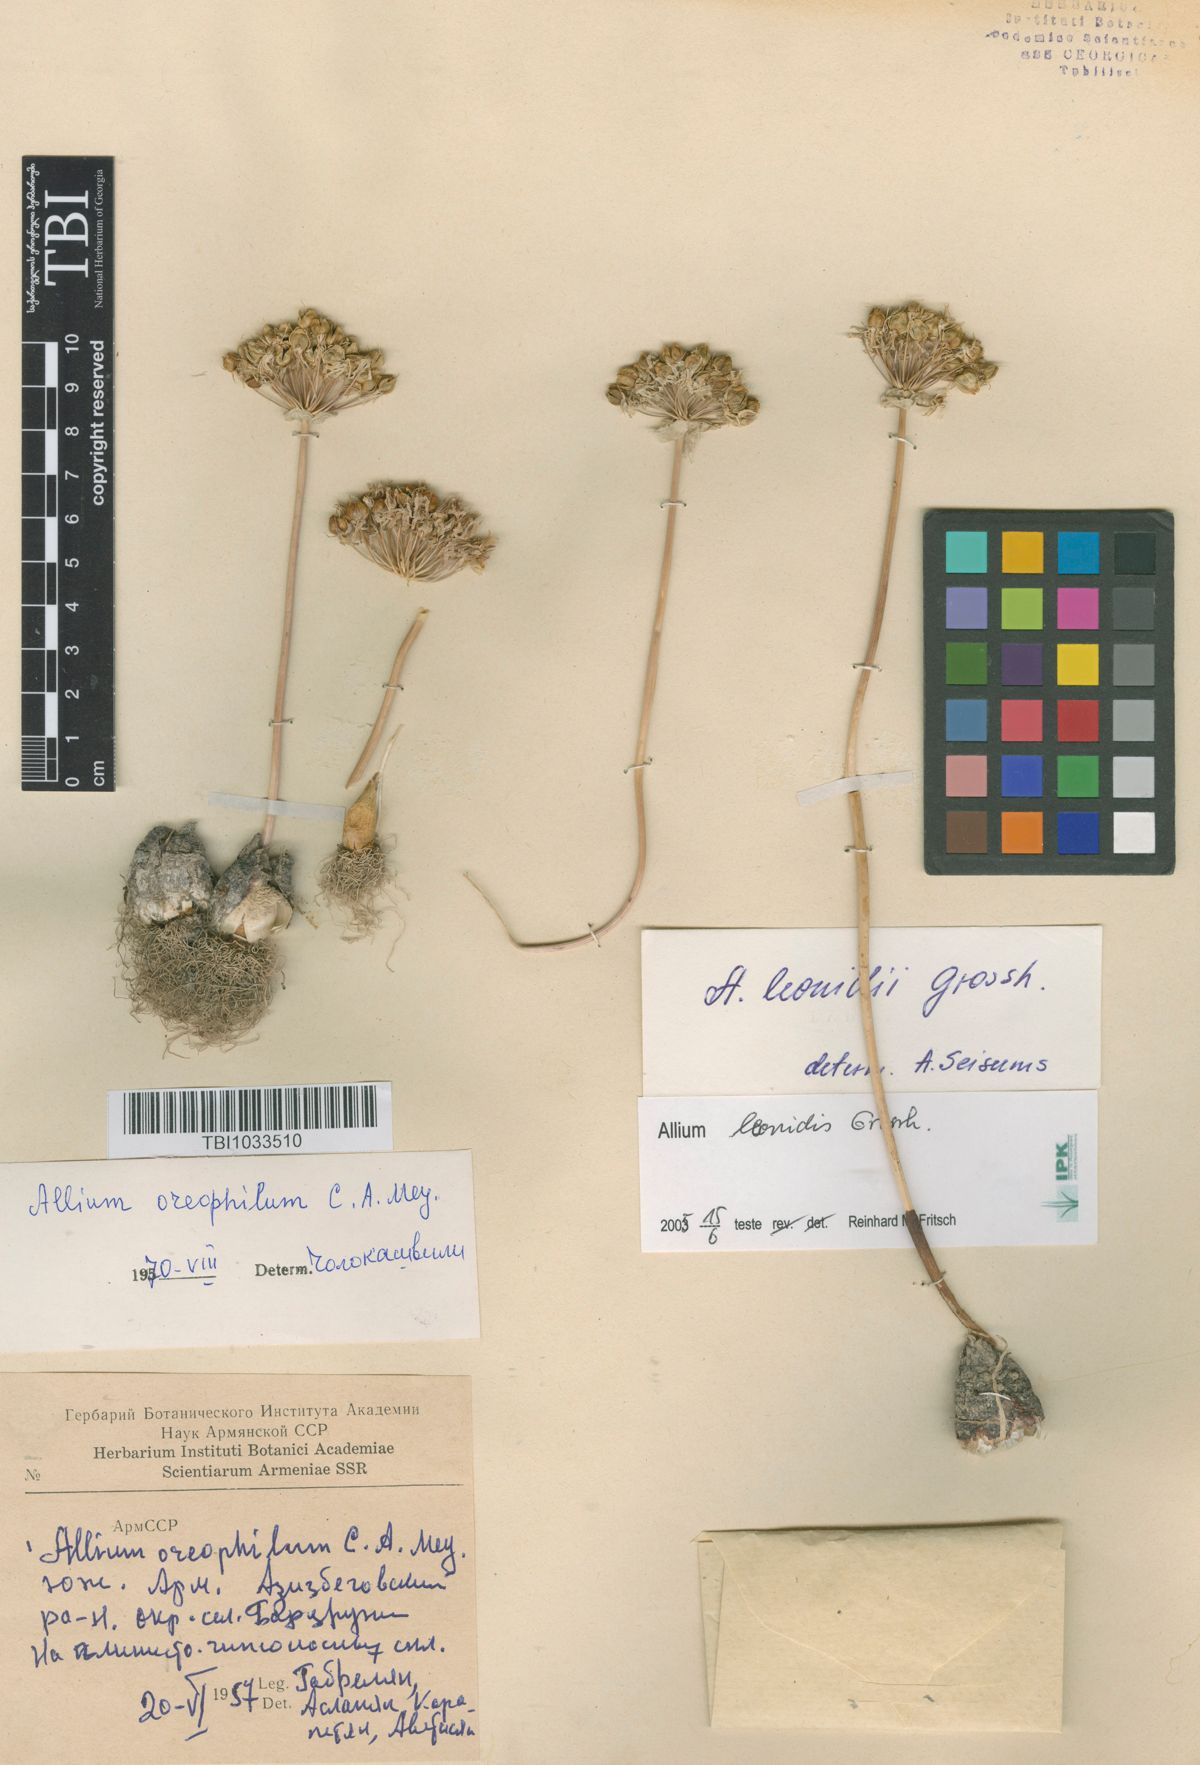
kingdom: Plantae
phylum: Tracheophyta
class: Liliopsida
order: Asparagales
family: Amaryllidaceae
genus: Allium
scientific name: Allium oreophilum
